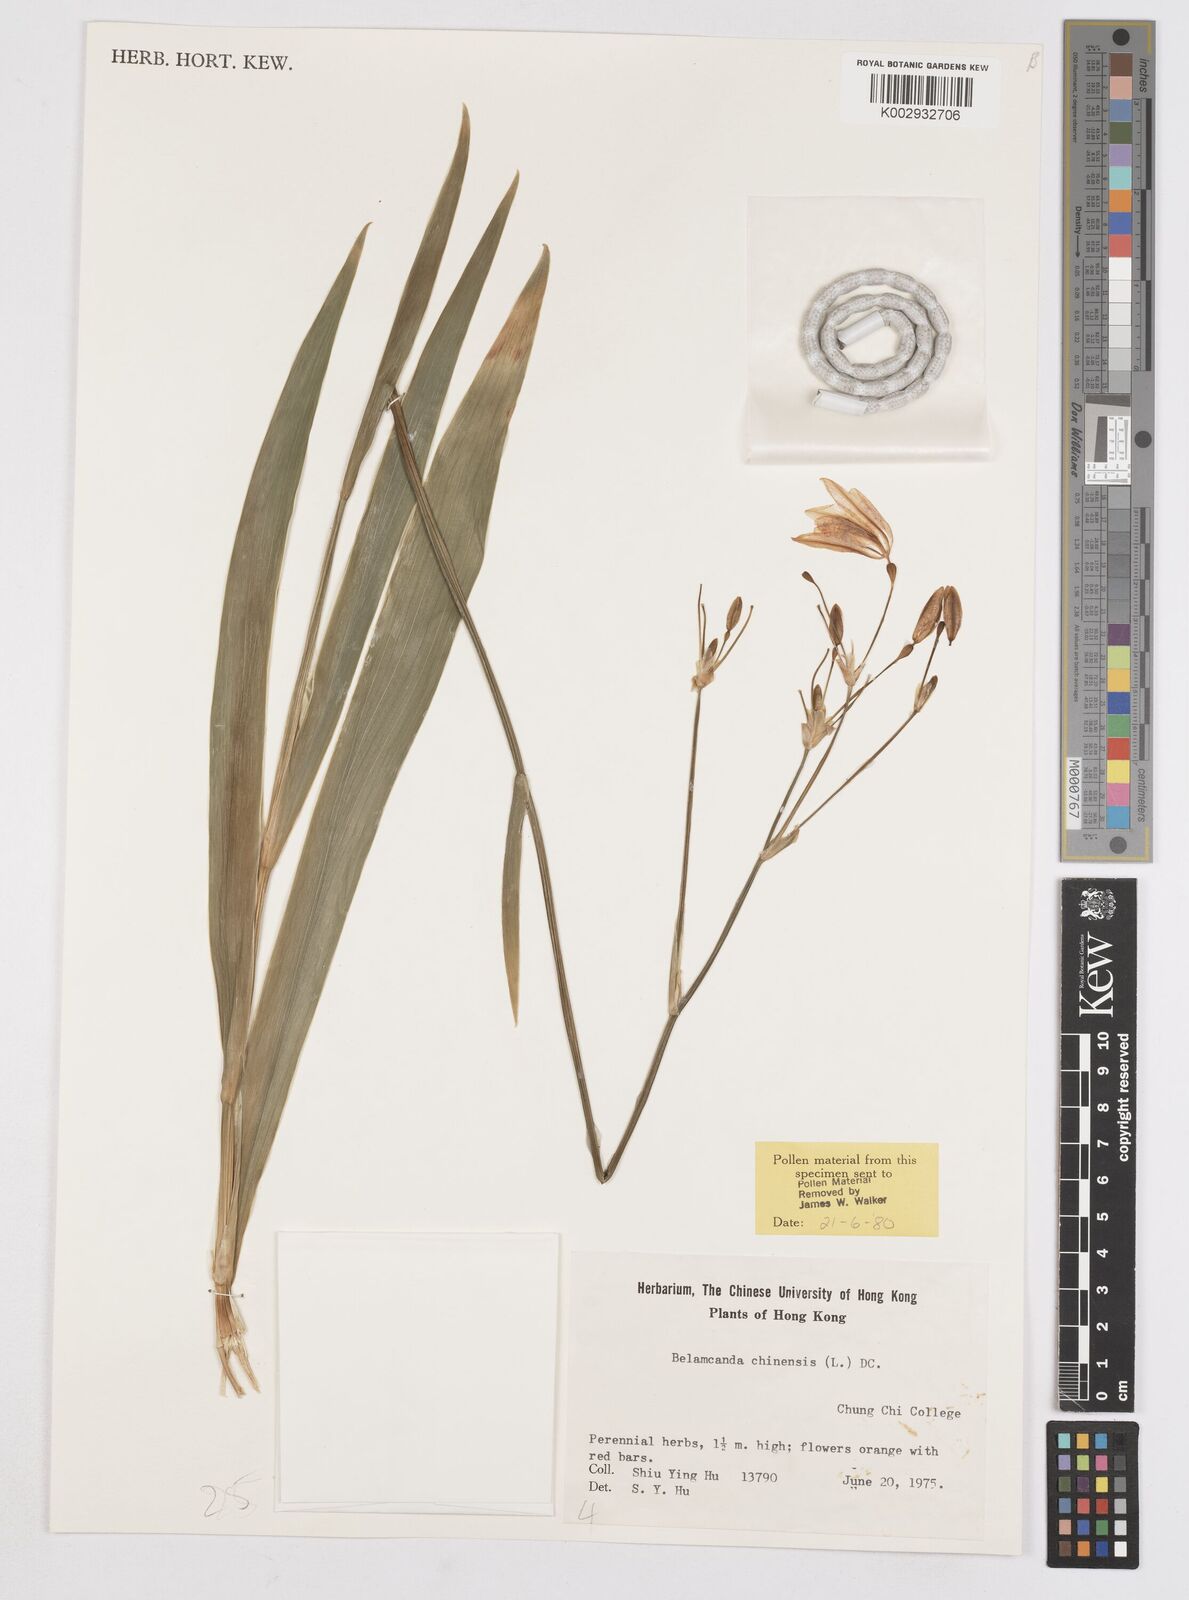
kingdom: Plantae
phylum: Tracheophyta
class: Liliopsida
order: Asparagales
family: Iridaceae
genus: Iris
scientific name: Iris
